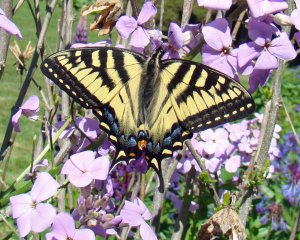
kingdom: Animalia
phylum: Arthropoda
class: Insecta
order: Lepidoptera
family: Papilionidae
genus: Pterourus
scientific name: Pterourus canadensis
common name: Canadian Tiger Swallowtail
